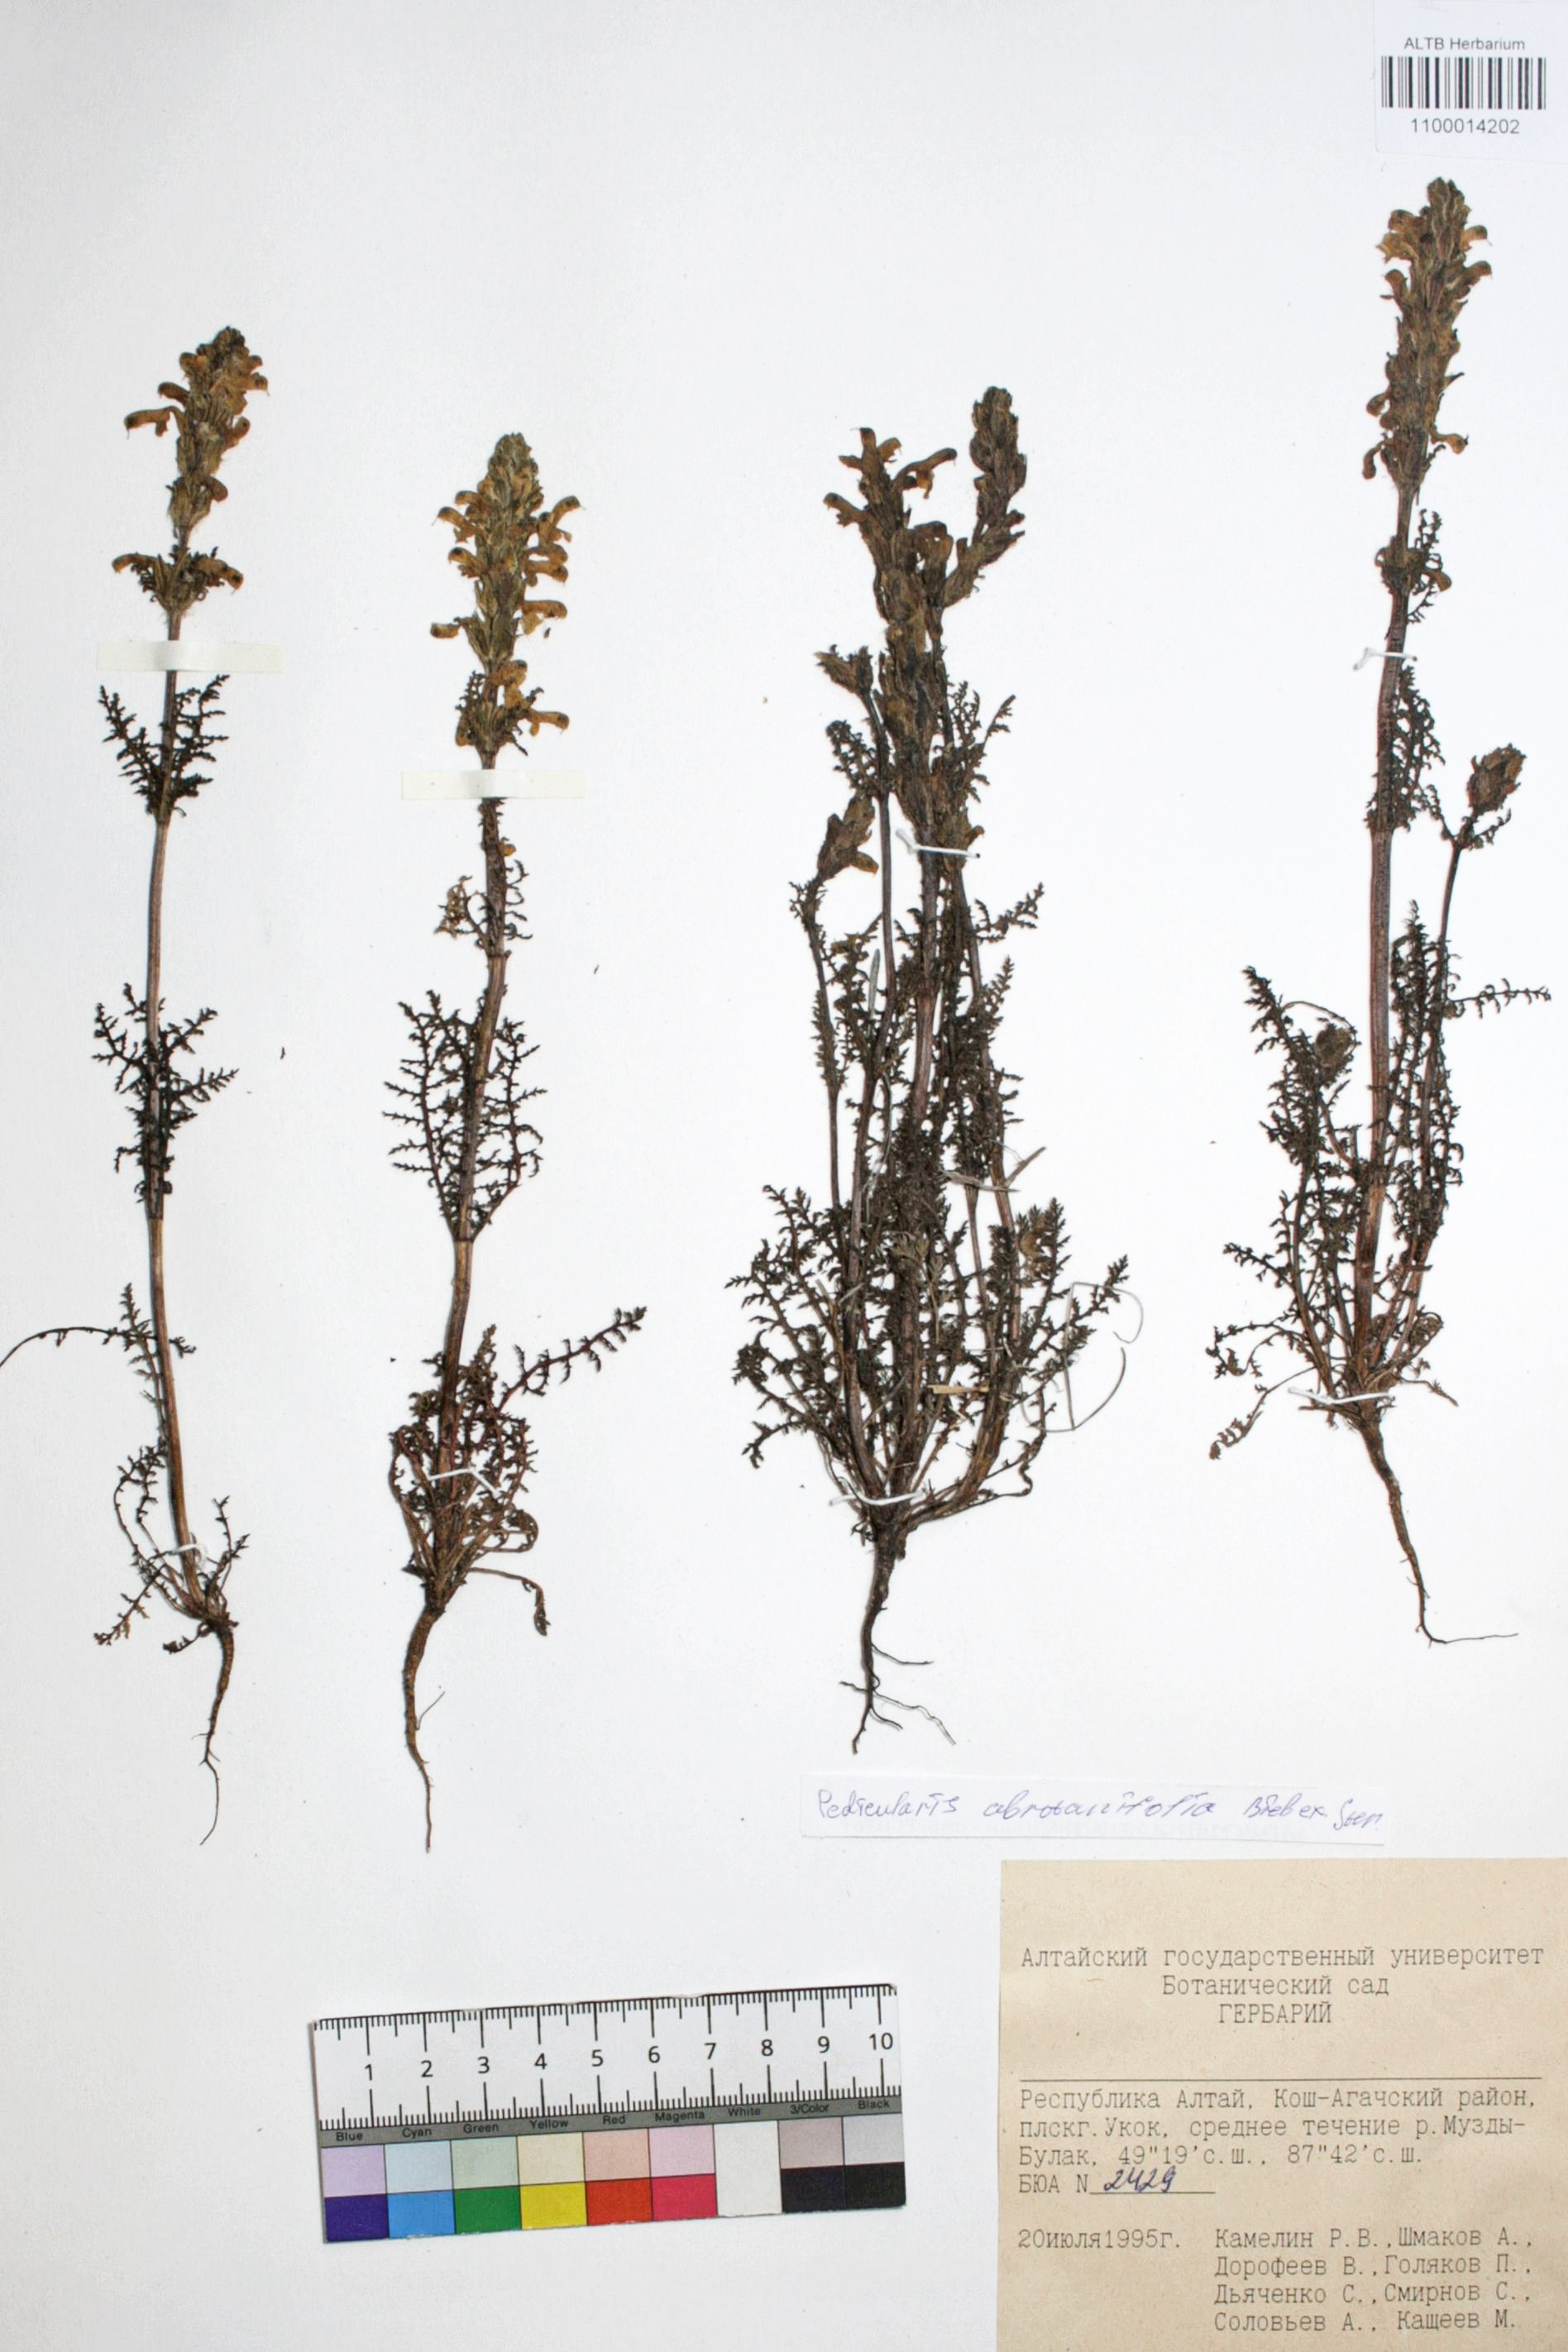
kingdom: Plantae
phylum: Tracheophyta
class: Magnoliopsida
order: Lamiales
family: Orobanchaceae
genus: Pedicularis
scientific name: Pedicularis abrotanifolia
